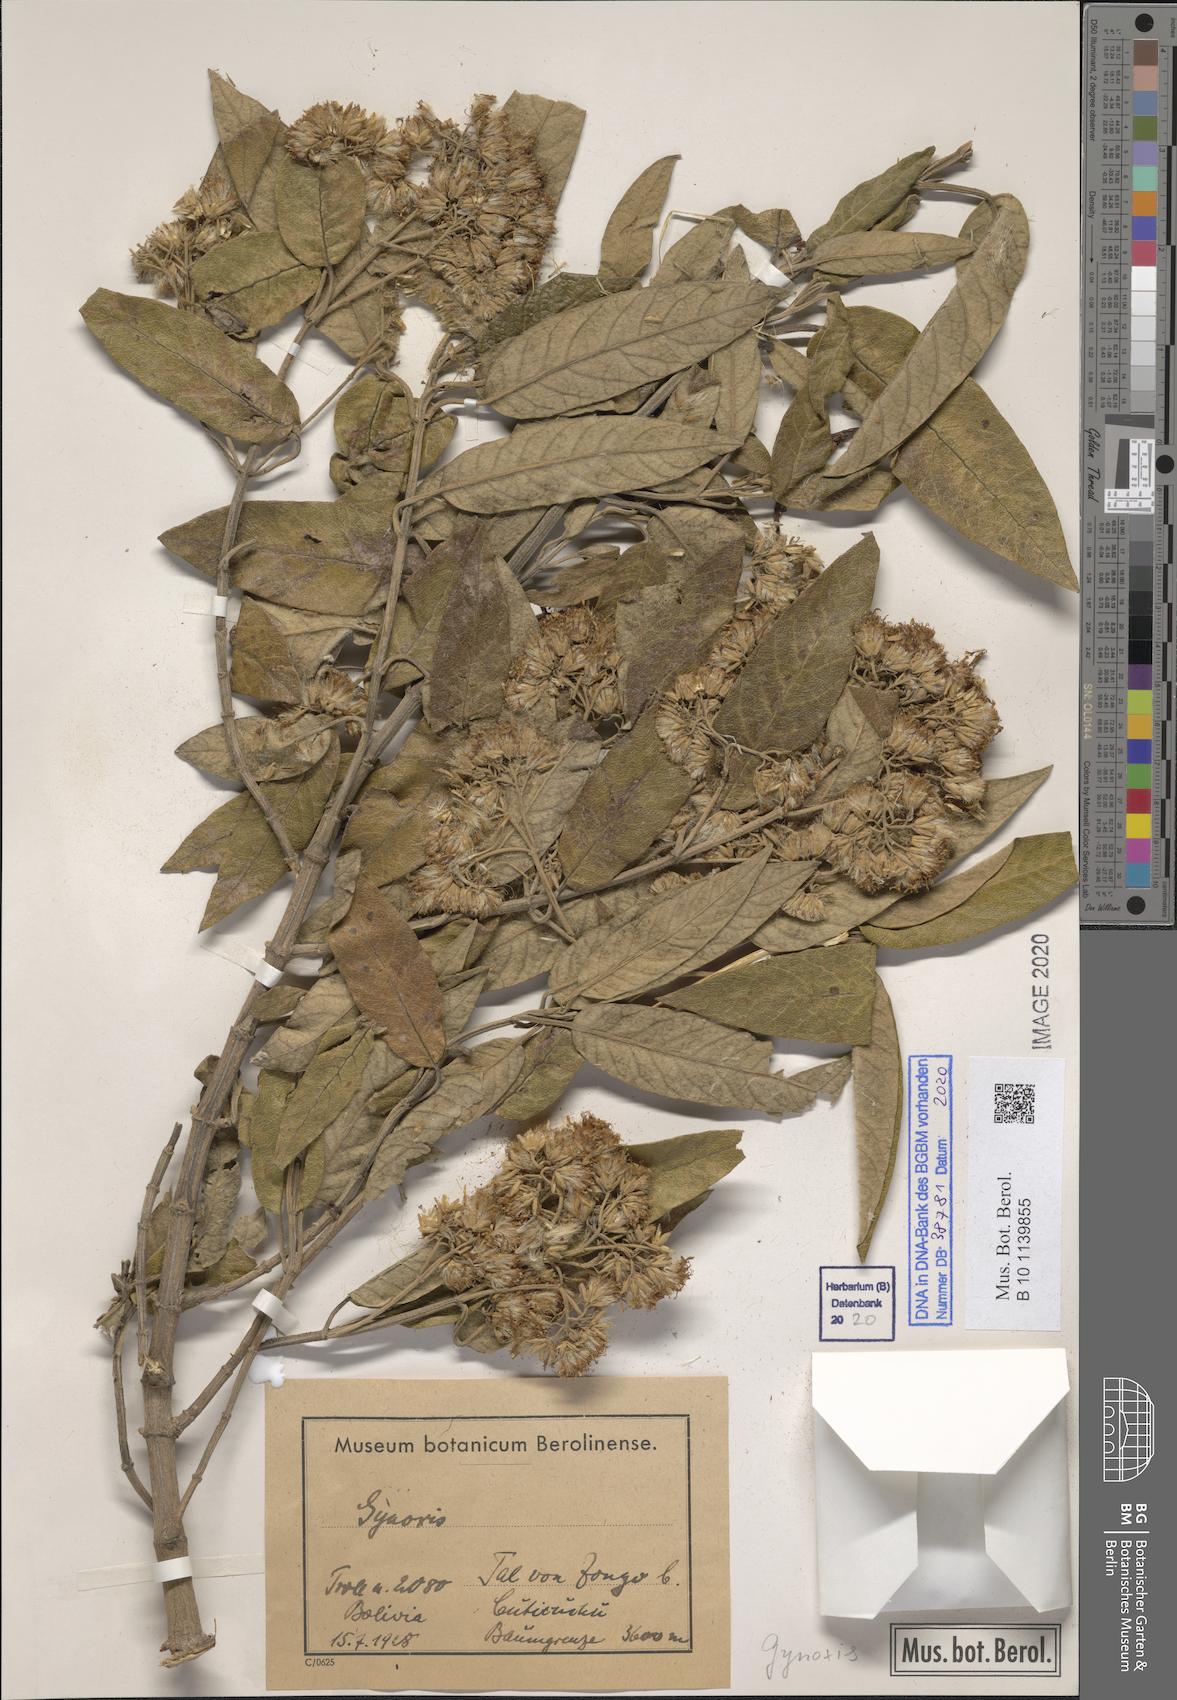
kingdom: Plantae
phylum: Tracheophyta
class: Magnoliopsida
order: Asterales
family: Asteraceae
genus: Gynoxys
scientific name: Gynoxys
